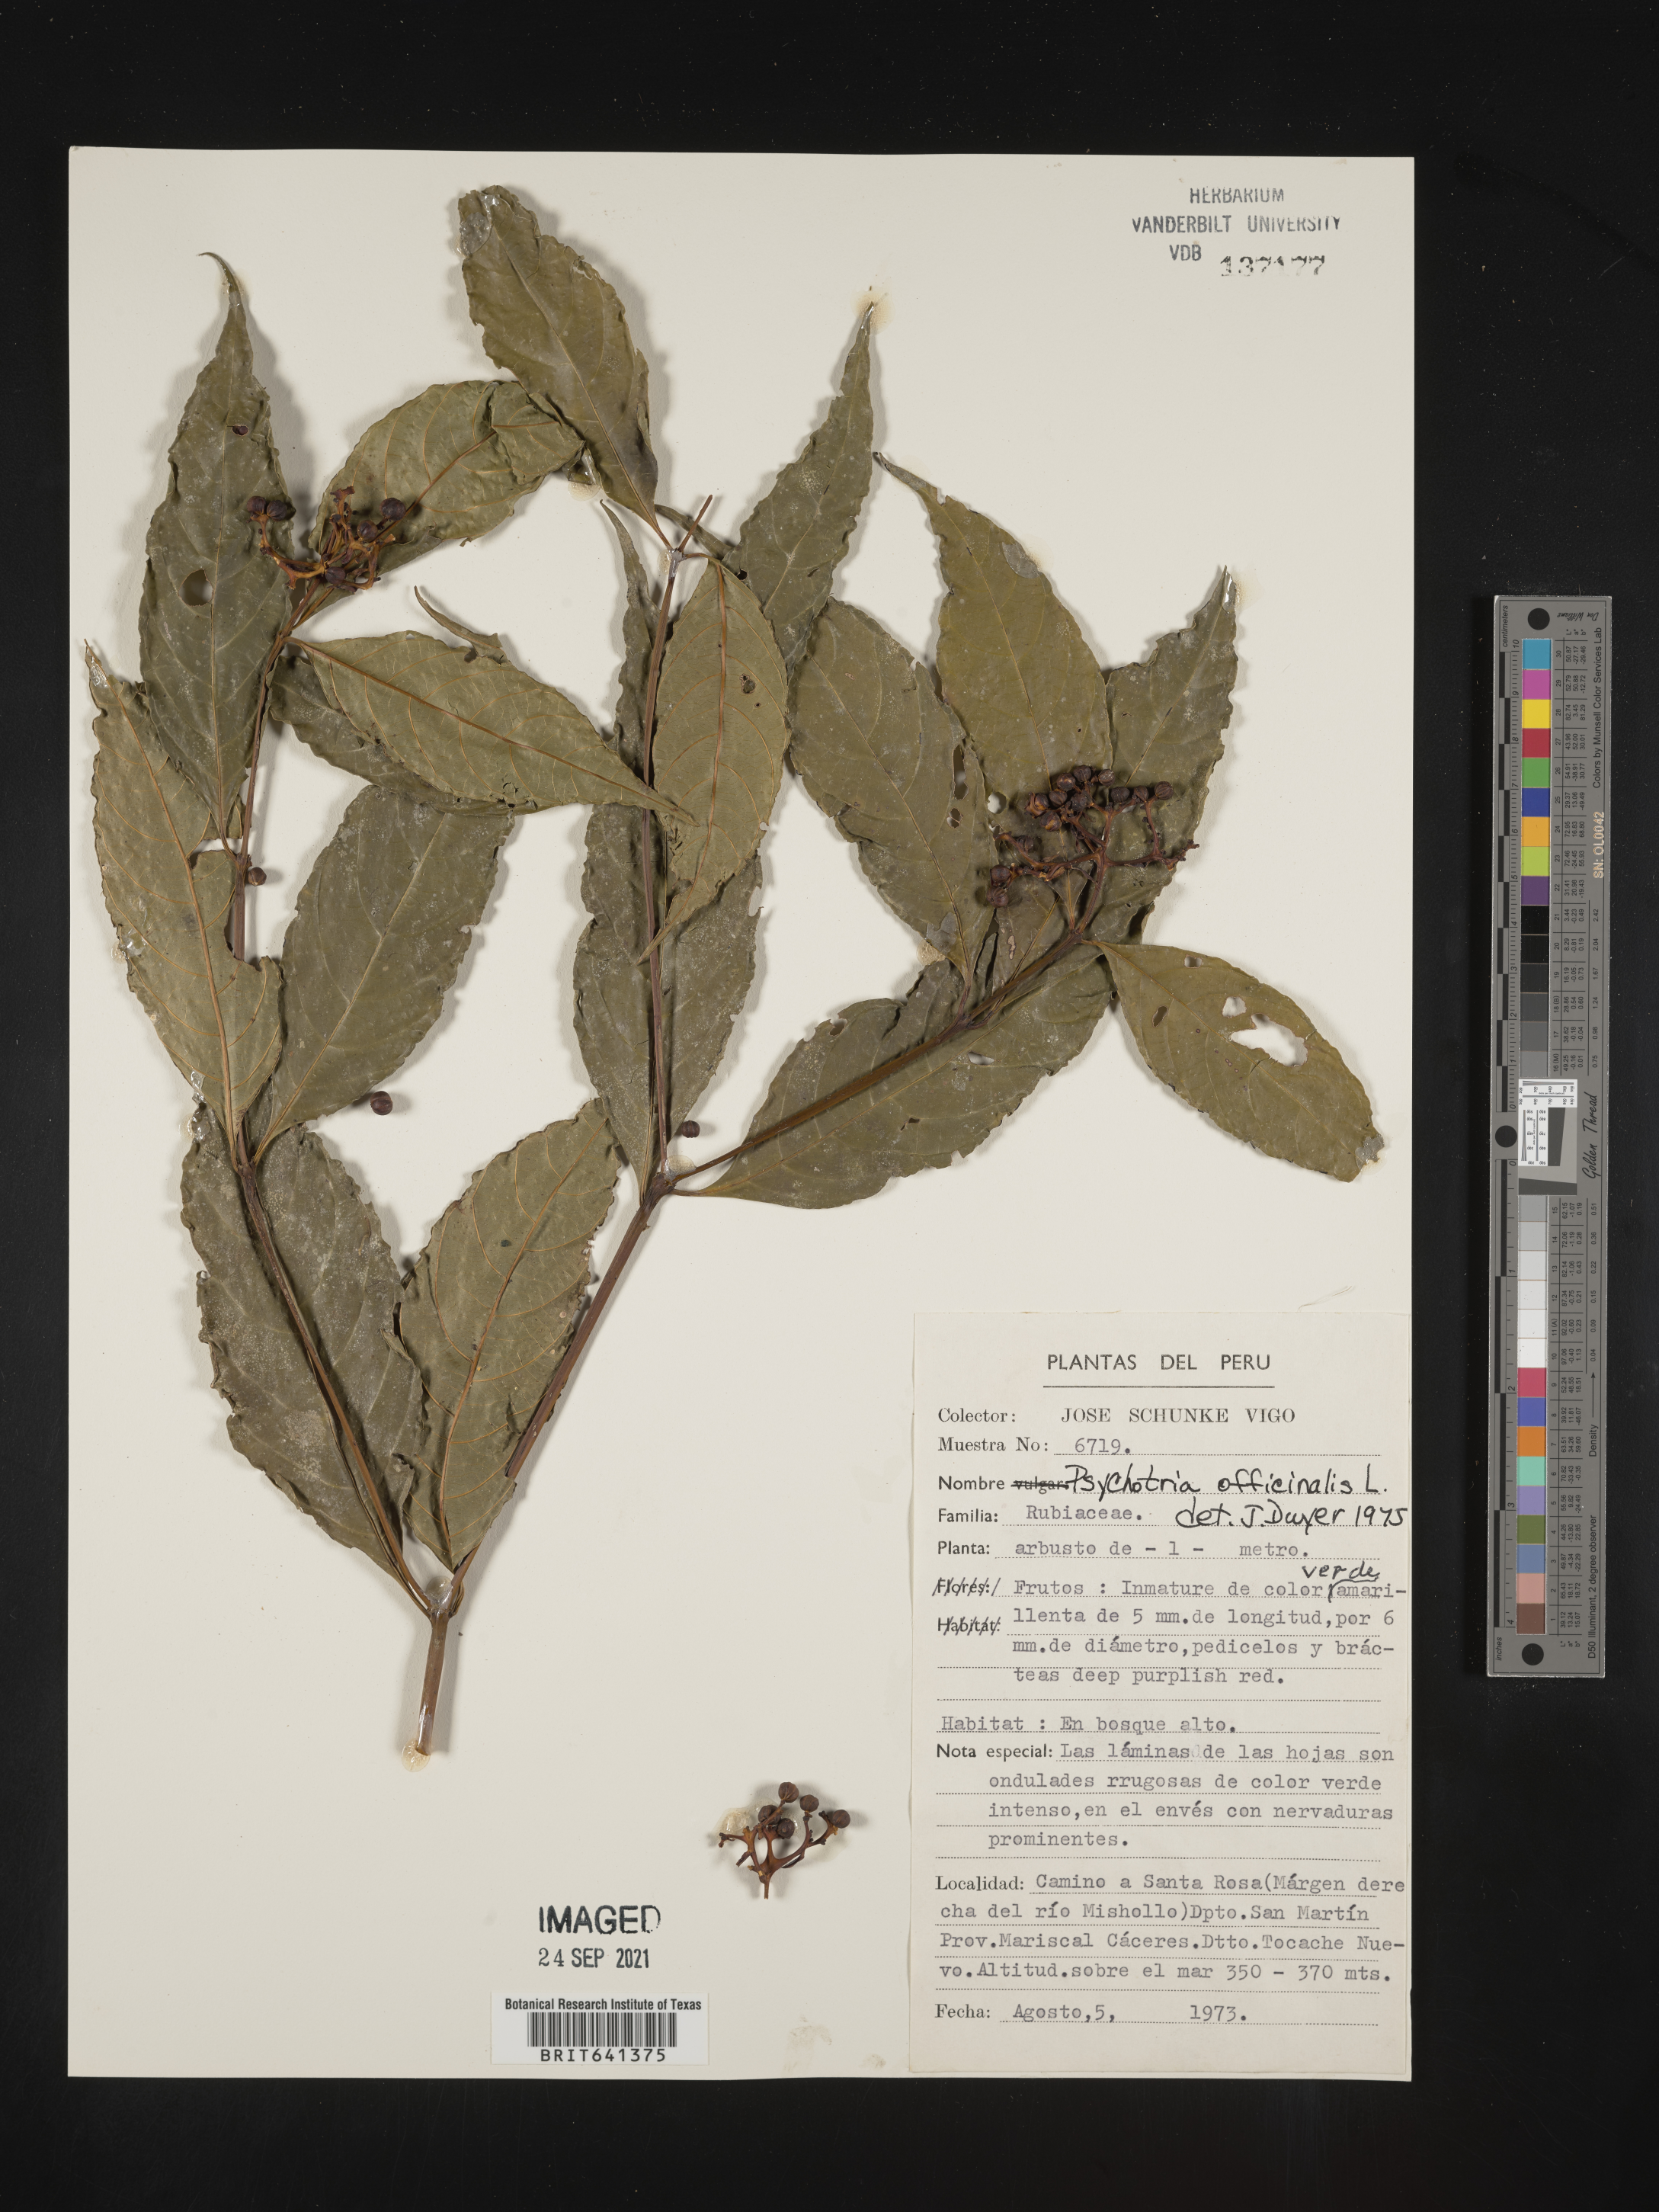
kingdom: Plantae
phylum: Tracheophyta
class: Magnoliopsida
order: Gentianales
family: Rubiaceae
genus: Psychotria
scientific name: Psychotria
